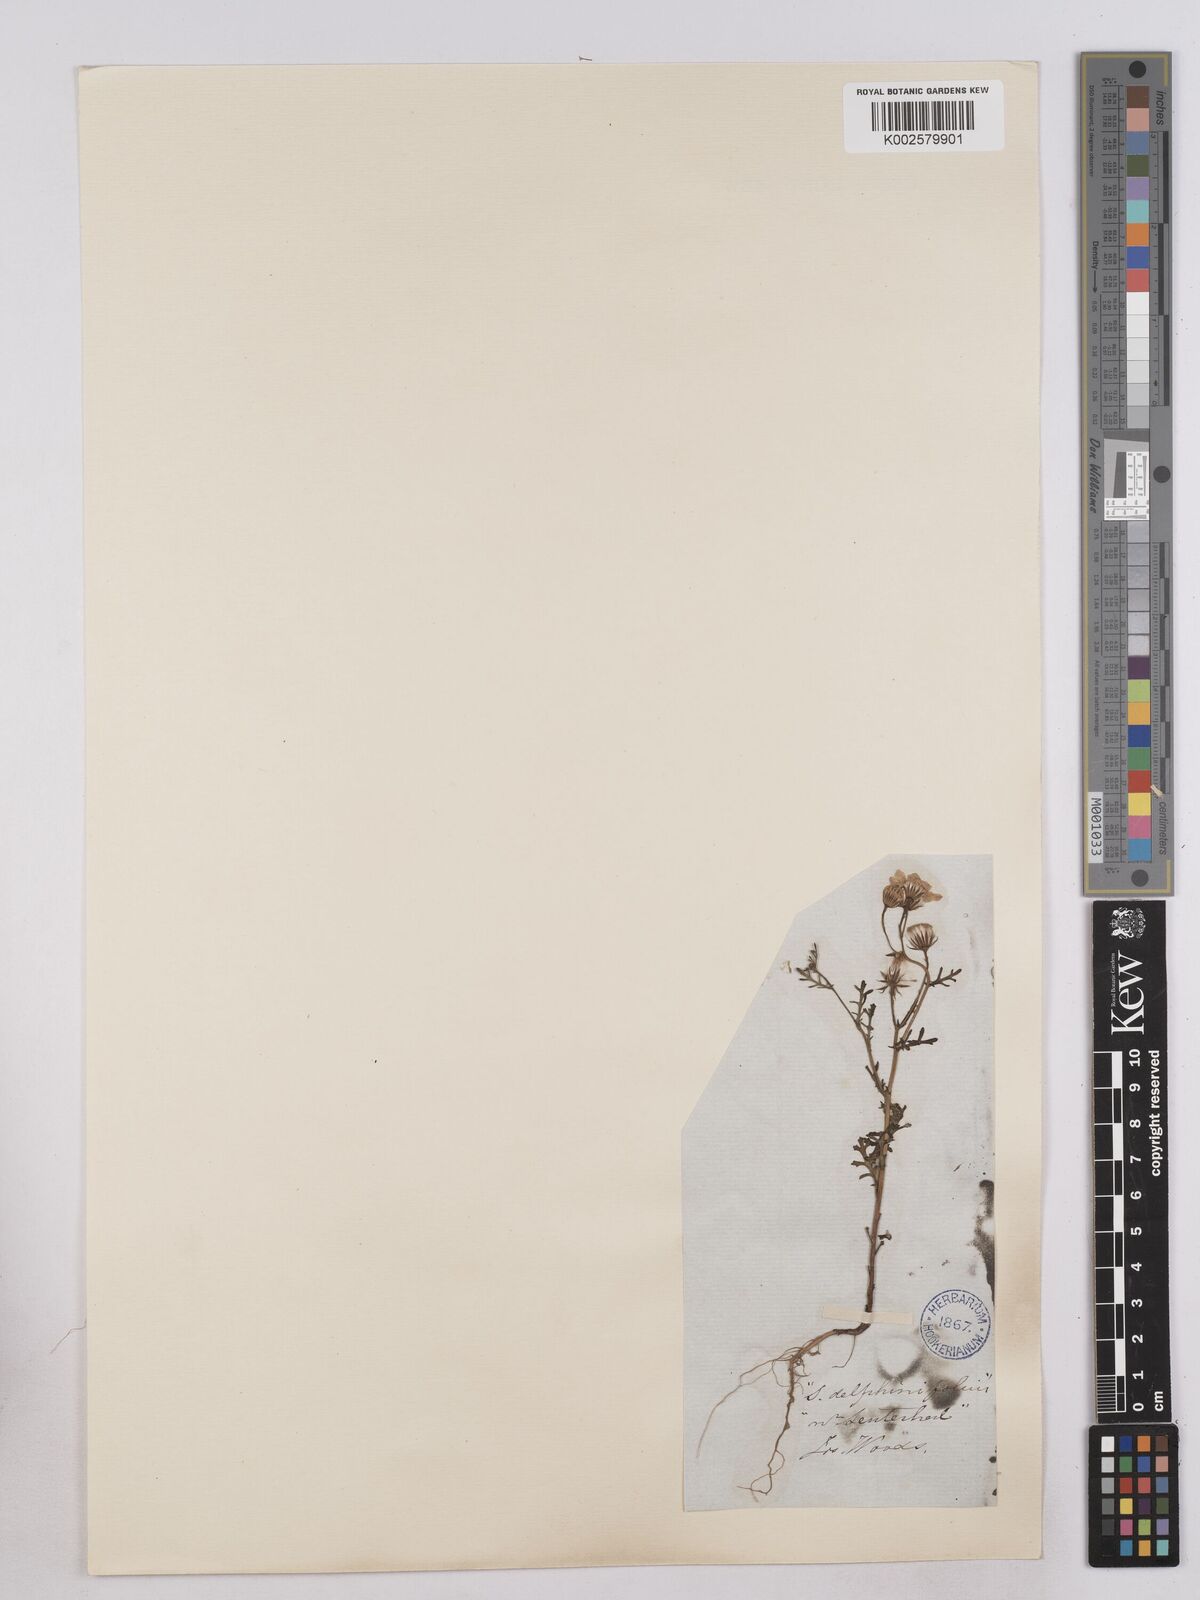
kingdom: Plantae
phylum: Tracheophyta
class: Magnoliopsida
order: Asterales
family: Asteraceae
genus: Senecio
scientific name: Senecio gallicus
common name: French groundsel
